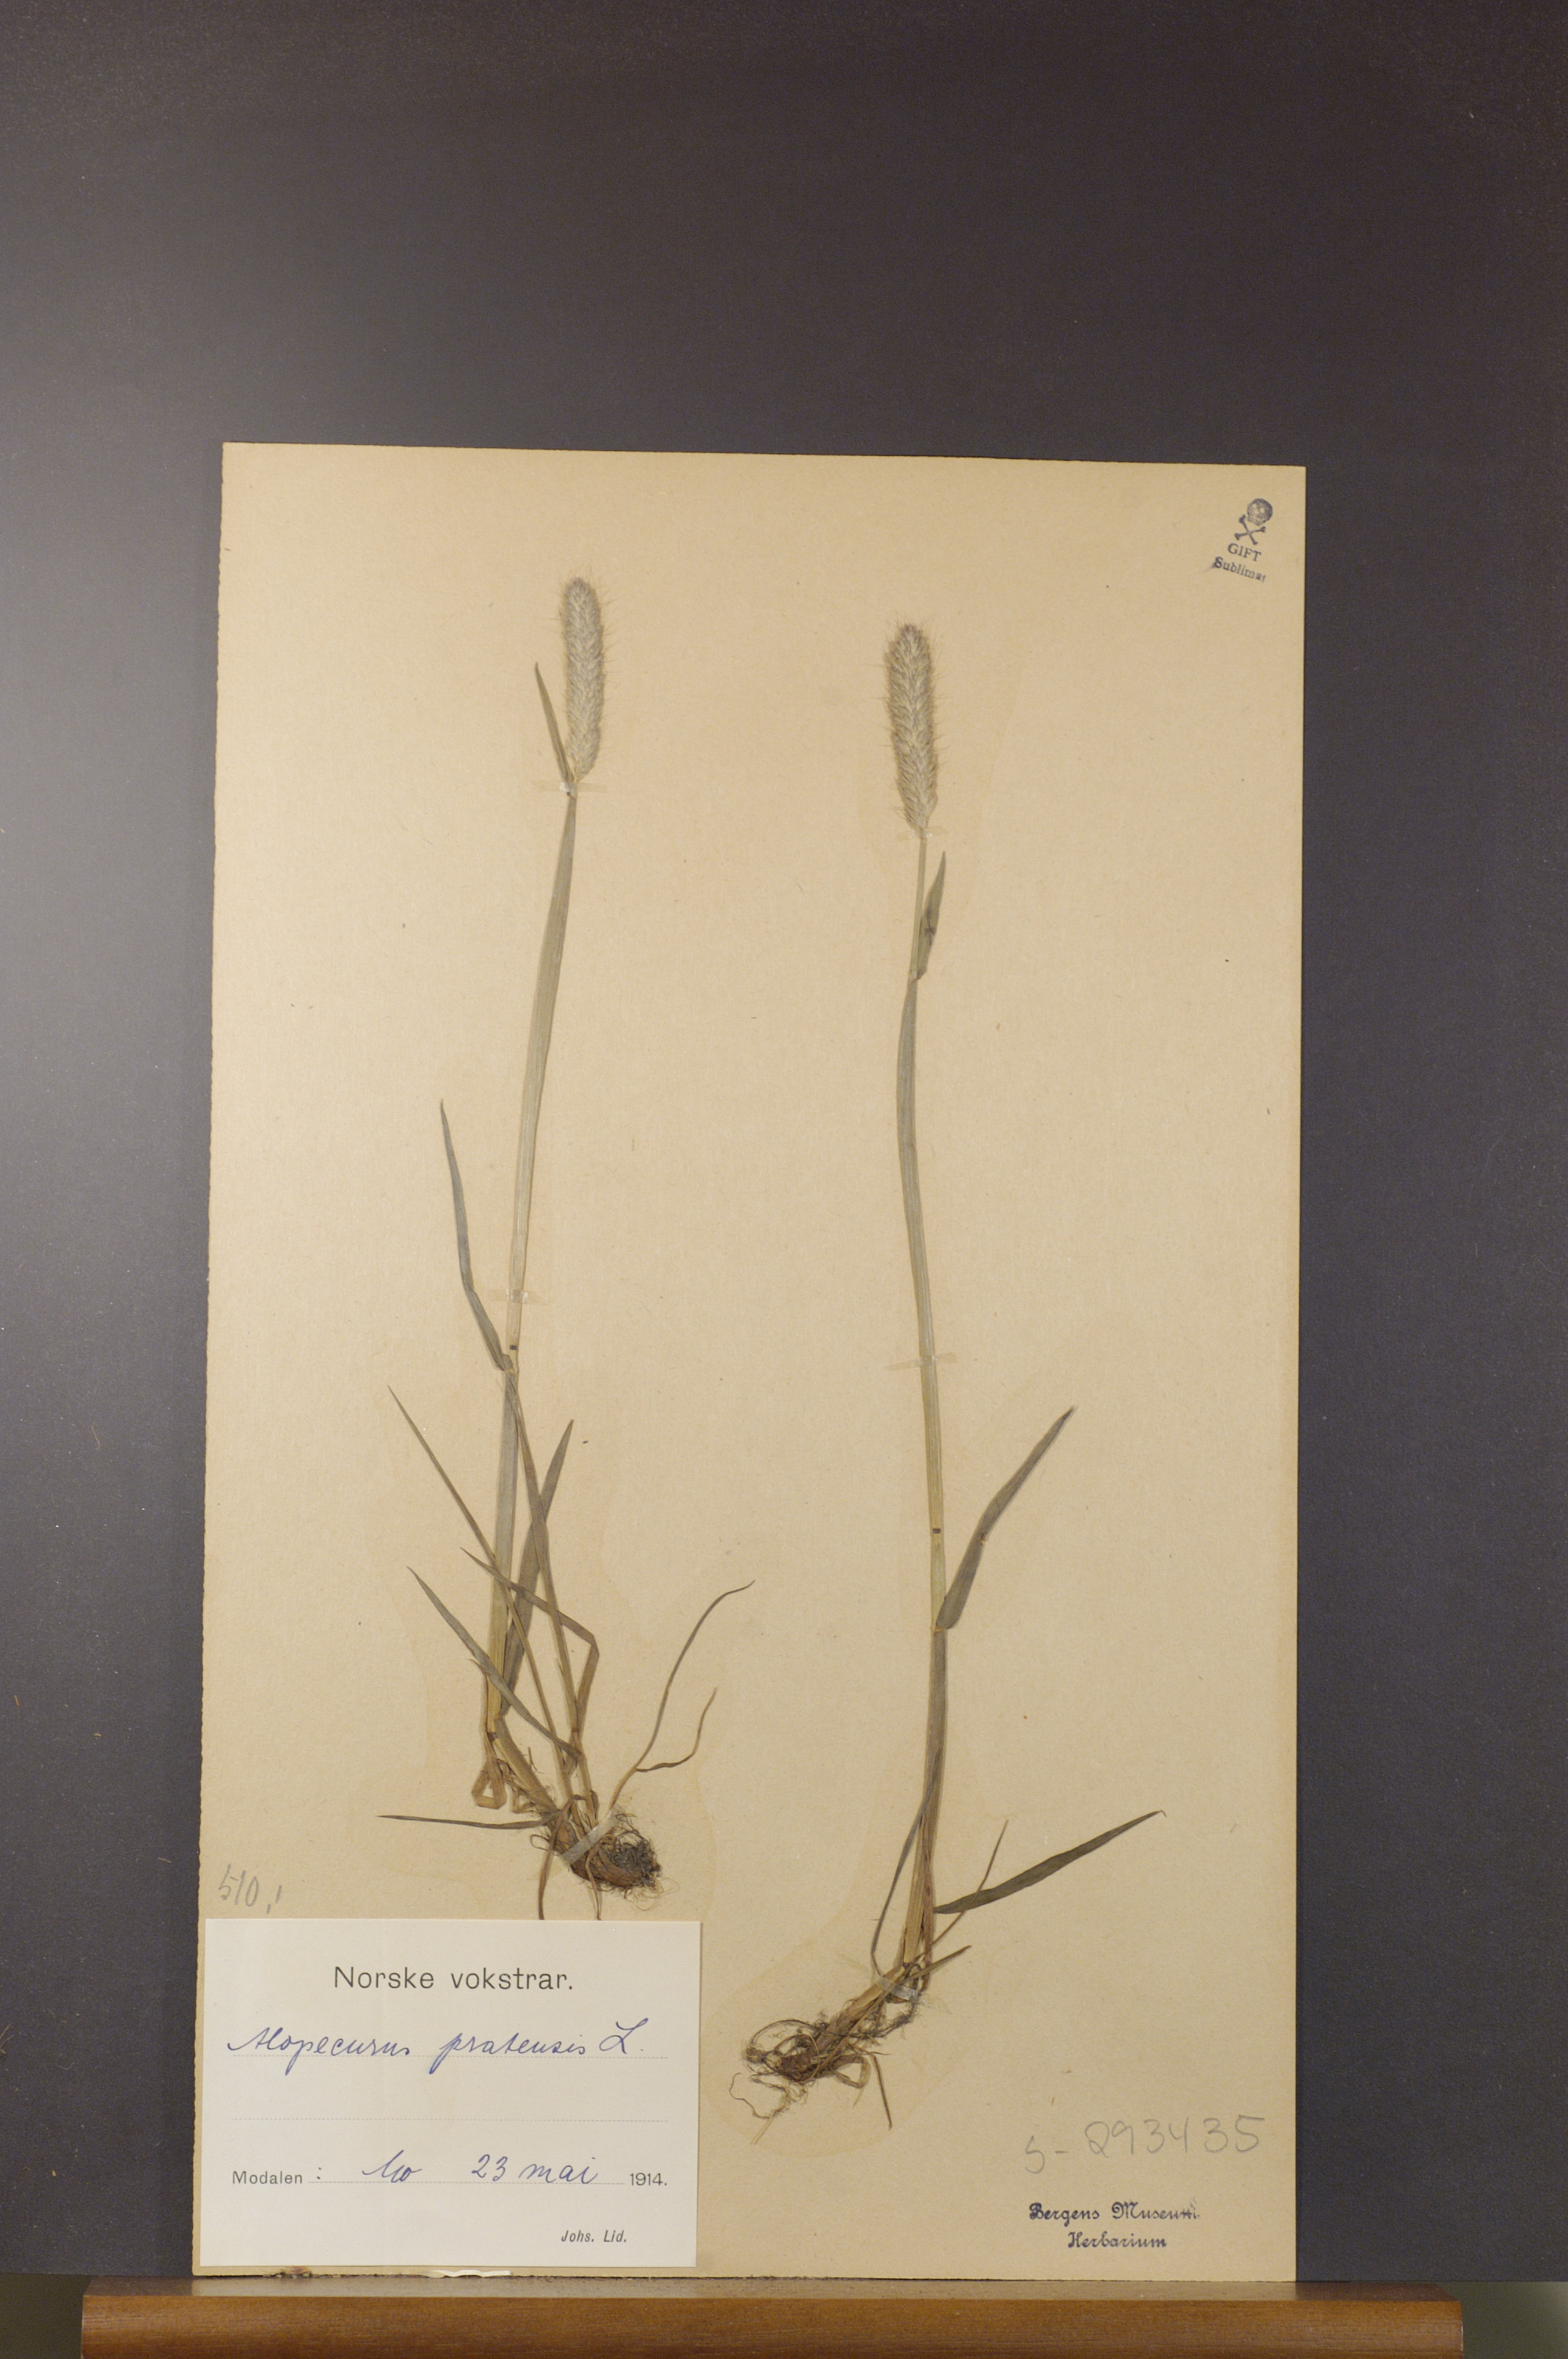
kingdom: Plantae
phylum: Tracheophyta
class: Liliopsida
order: Poales
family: Poaceae
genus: Alopecurus
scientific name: Alopecurus pratensis
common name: Meadow foxtail
